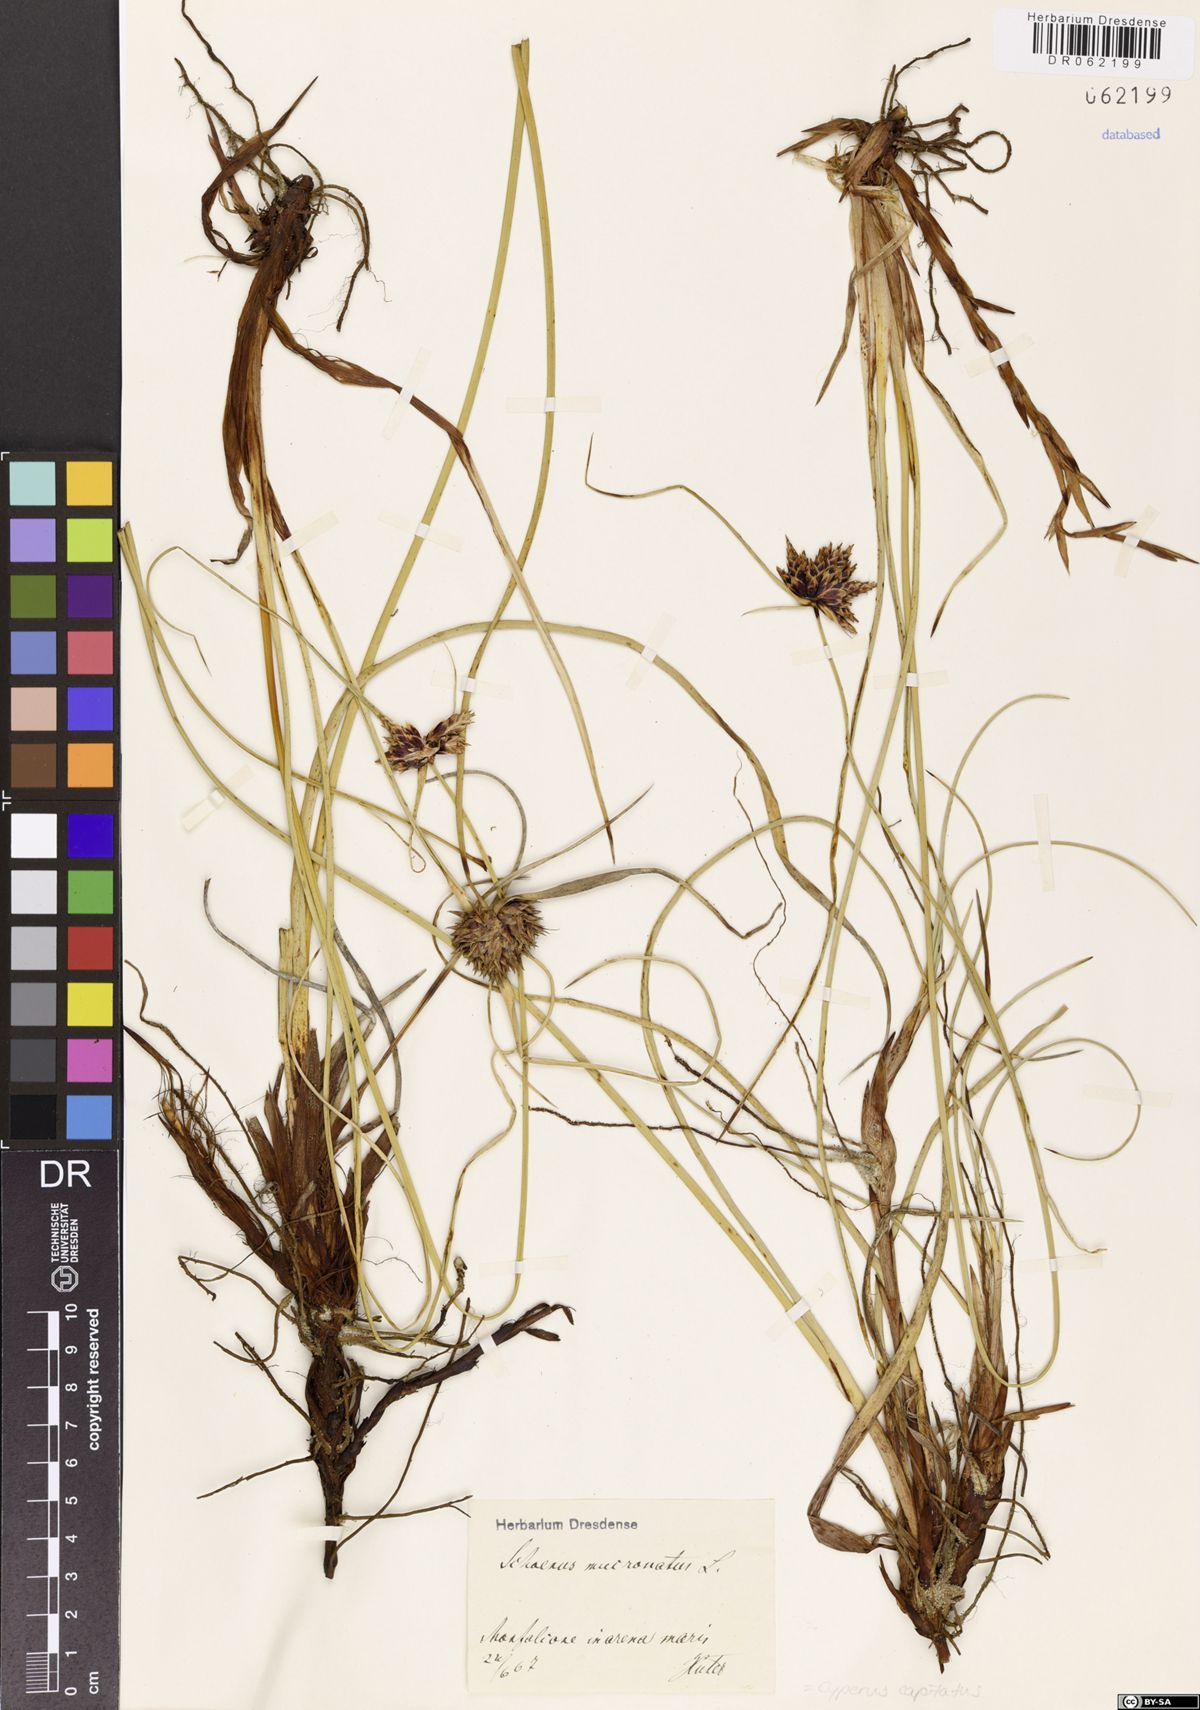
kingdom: Plantae
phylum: Tracheophyta
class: Liliopsida
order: Poales
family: Cyperaceae
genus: Cyperus
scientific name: Cyperus capitatus
